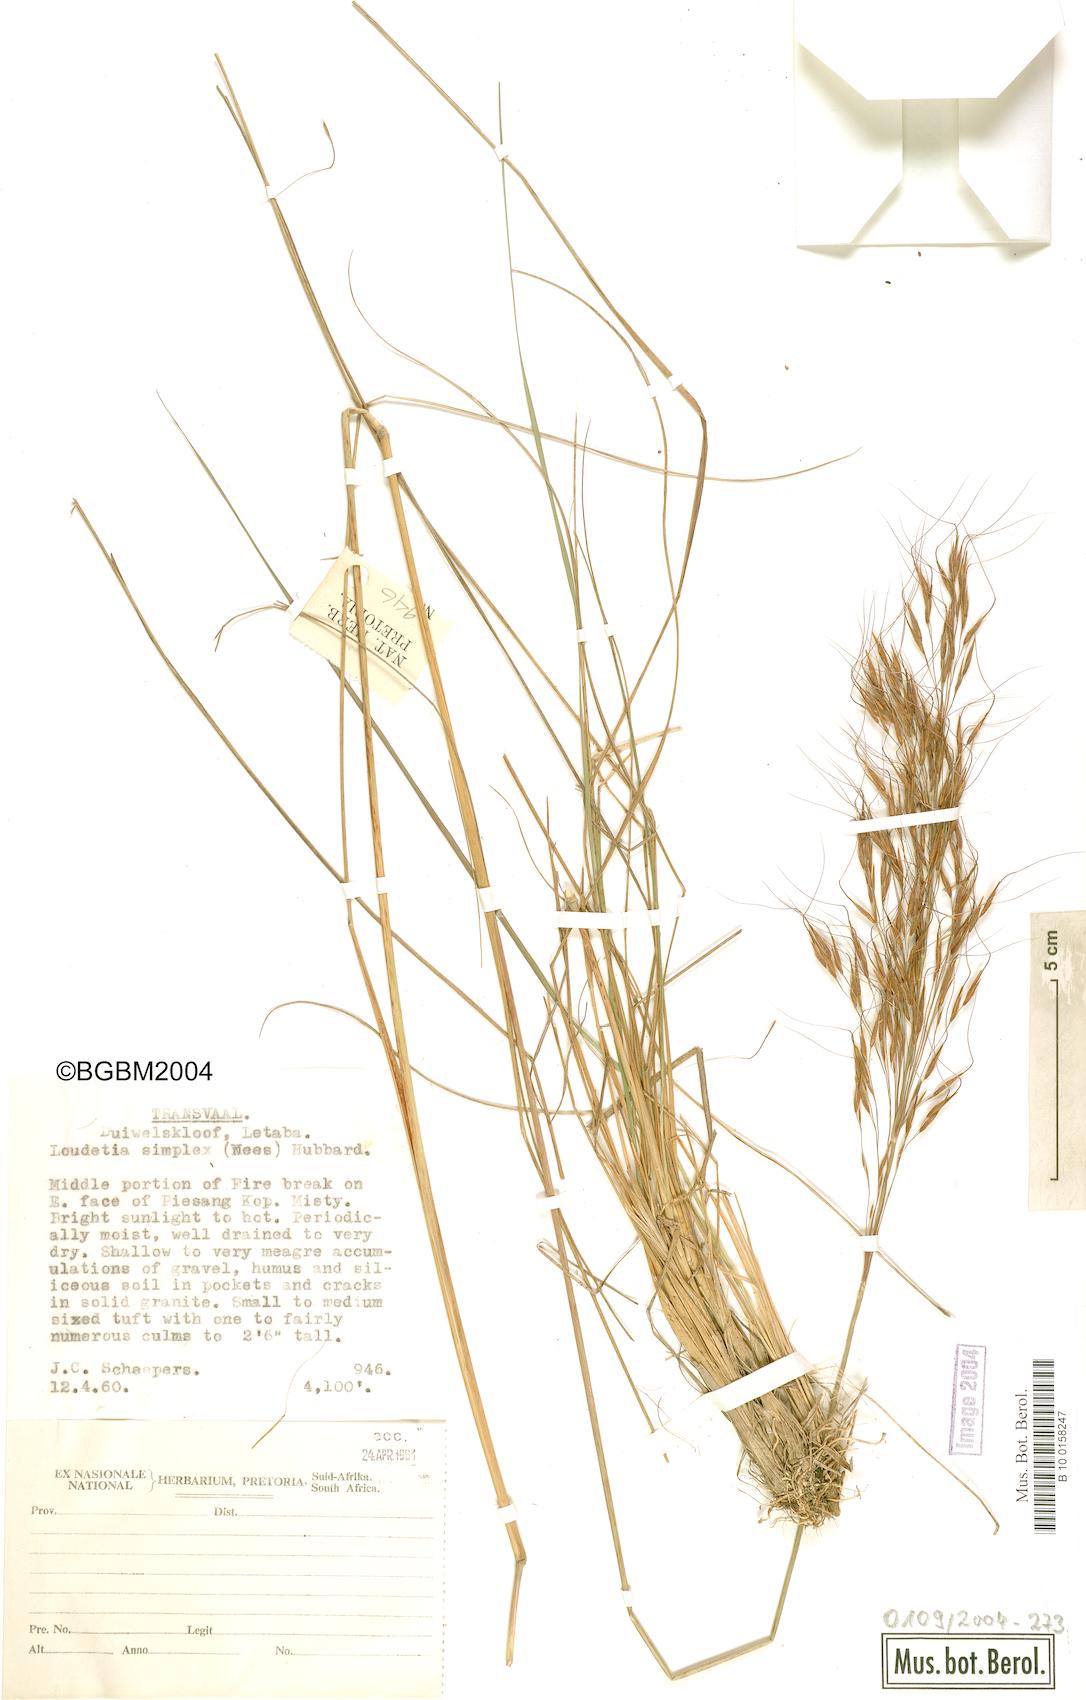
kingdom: Plantae
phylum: Tracheophyta
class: Liliopsida
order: Poales
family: Poaceae
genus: Loudetia
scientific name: Loudetia simplex
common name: Common russet grass
